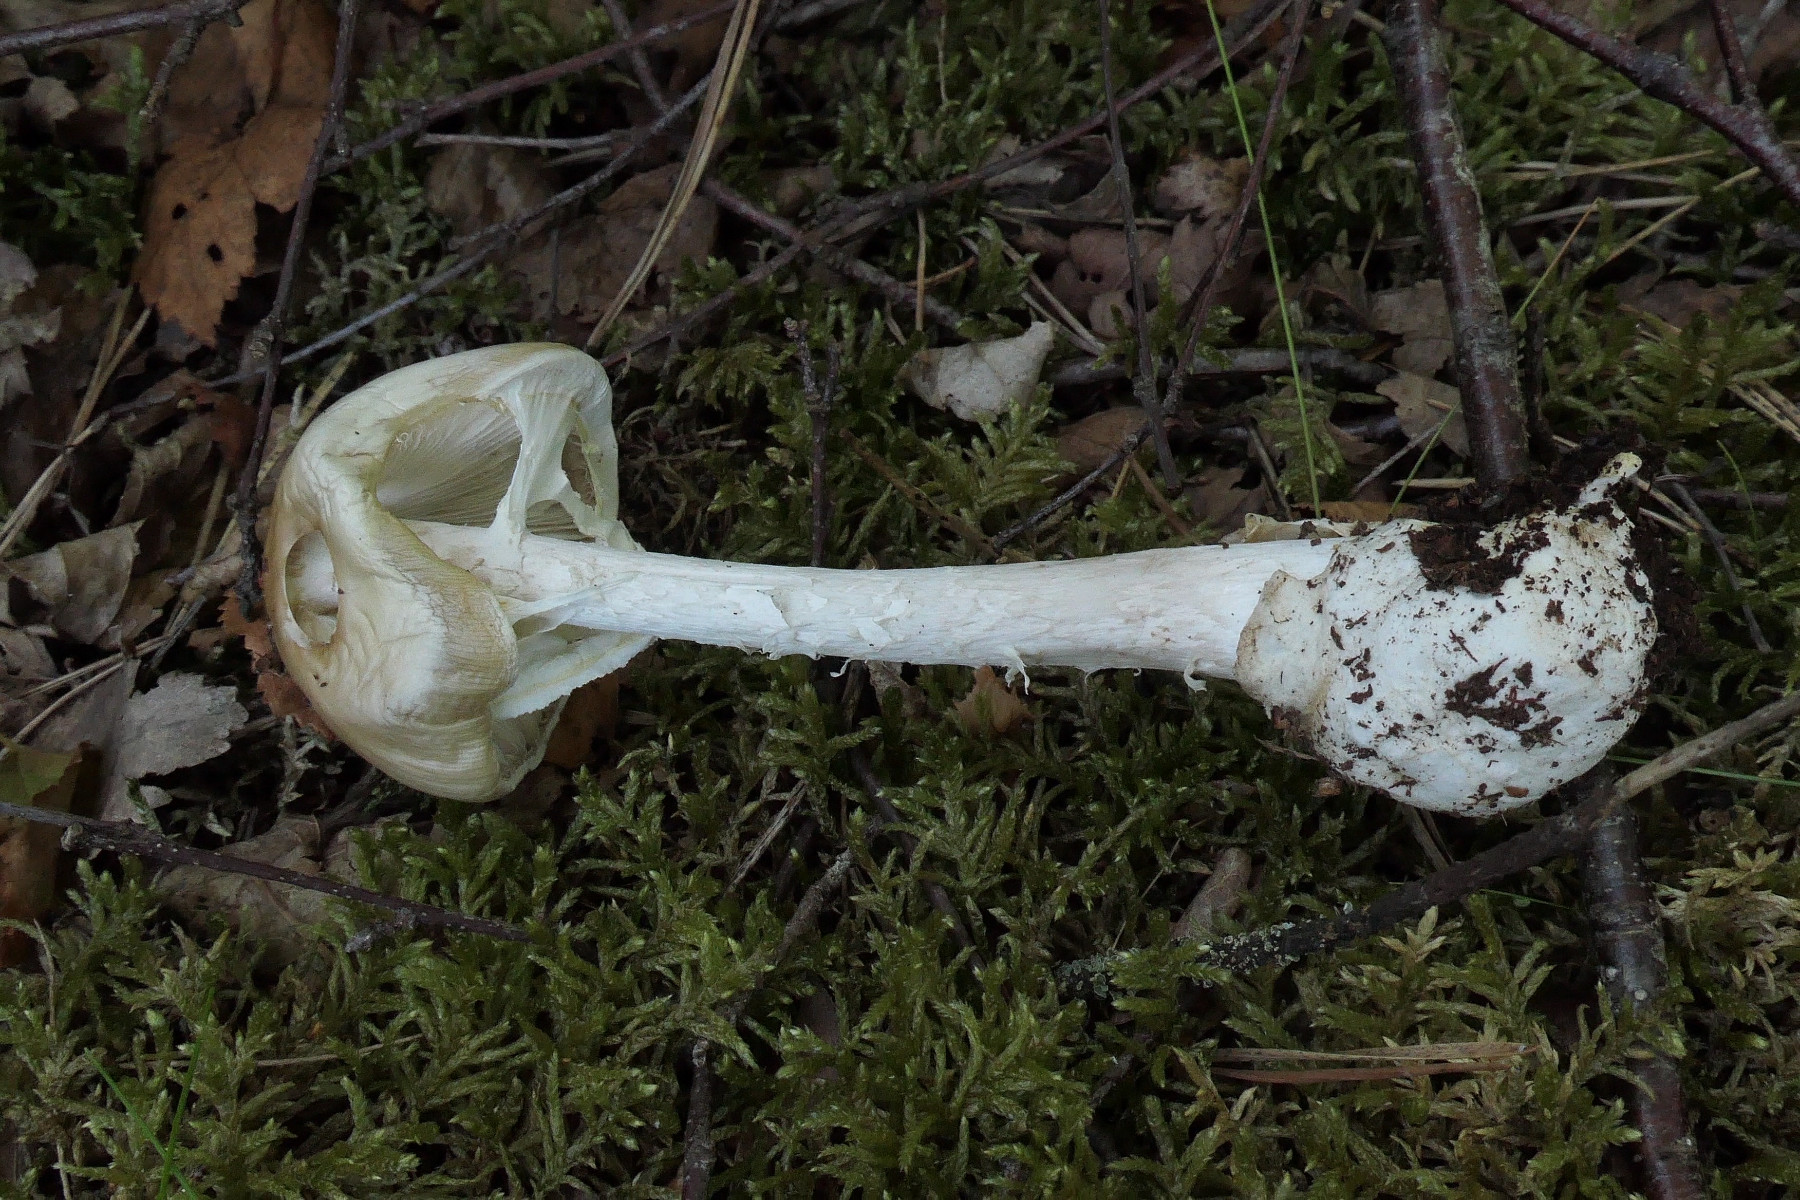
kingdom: Fungi
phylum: Basidiomycota
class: Agaricomycetes
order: Agaricales
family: Amanitaceae
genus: Amanita
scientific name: Amanita virosa
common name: snehvid fluesvamp
